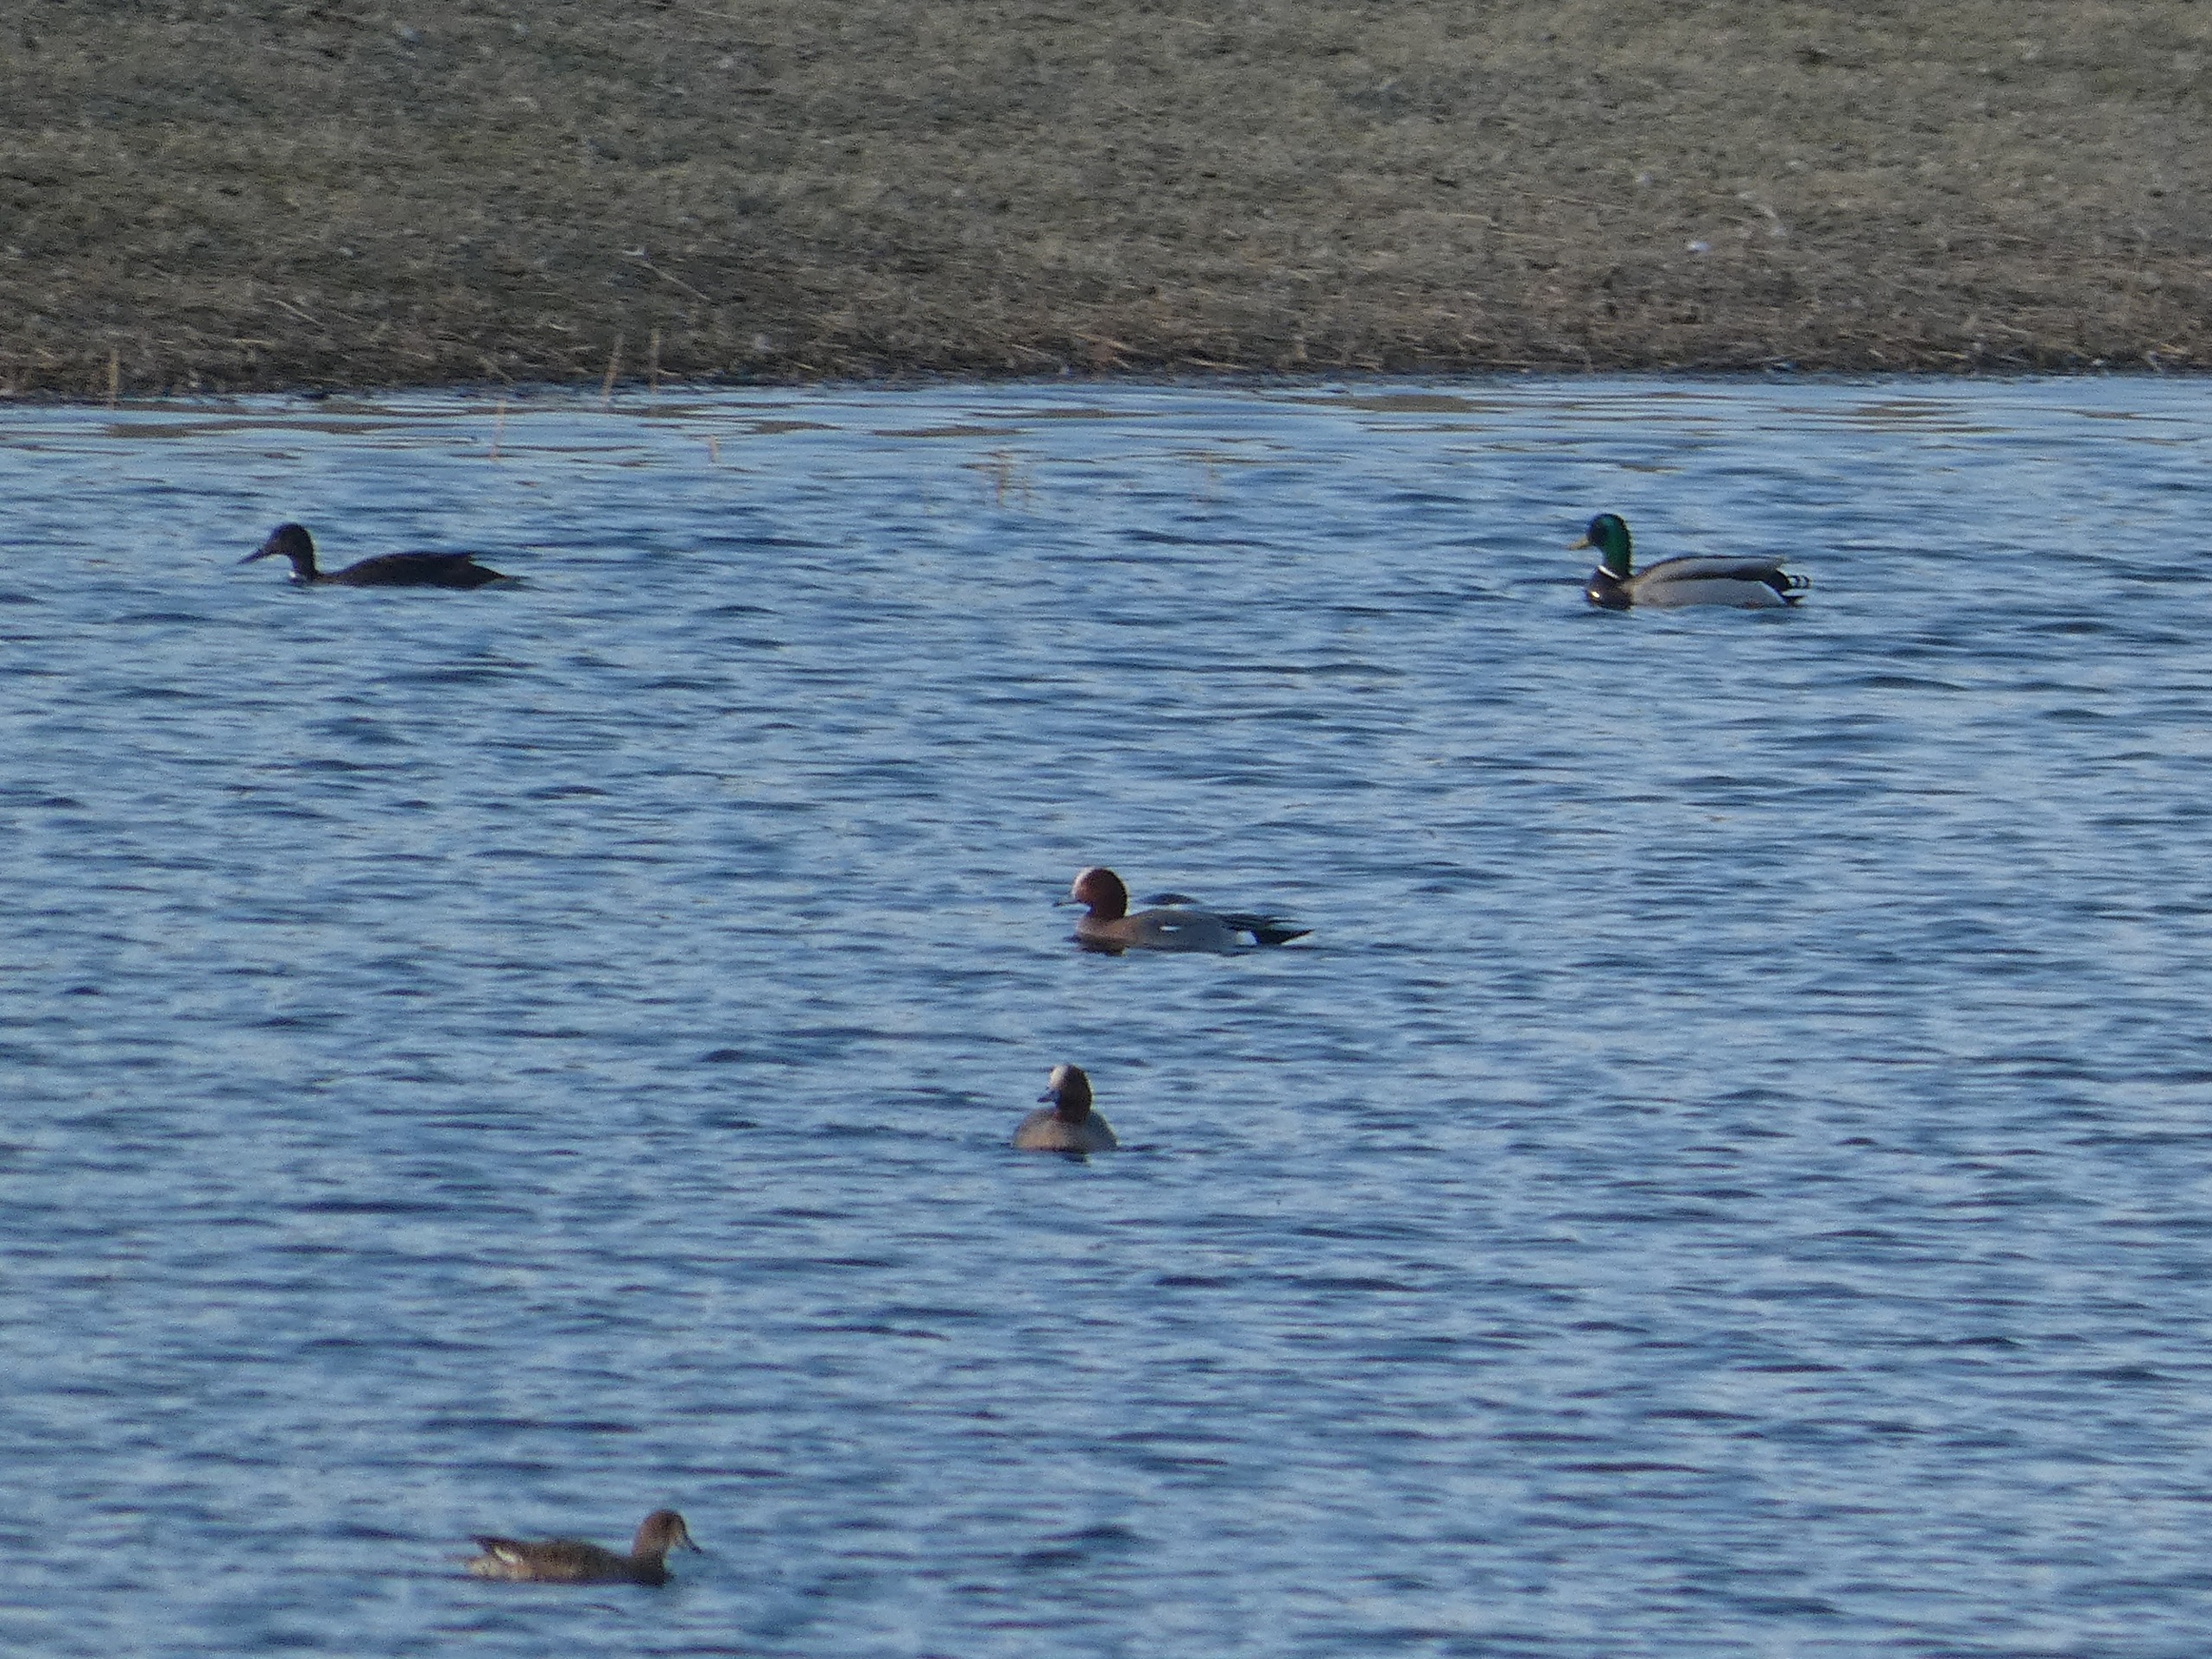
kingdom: Animalia
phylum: Chordata
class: Aves
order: Anseriformes
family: Anatidae
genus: Anas
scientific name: Anas platyrhynchos
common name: Gråand
